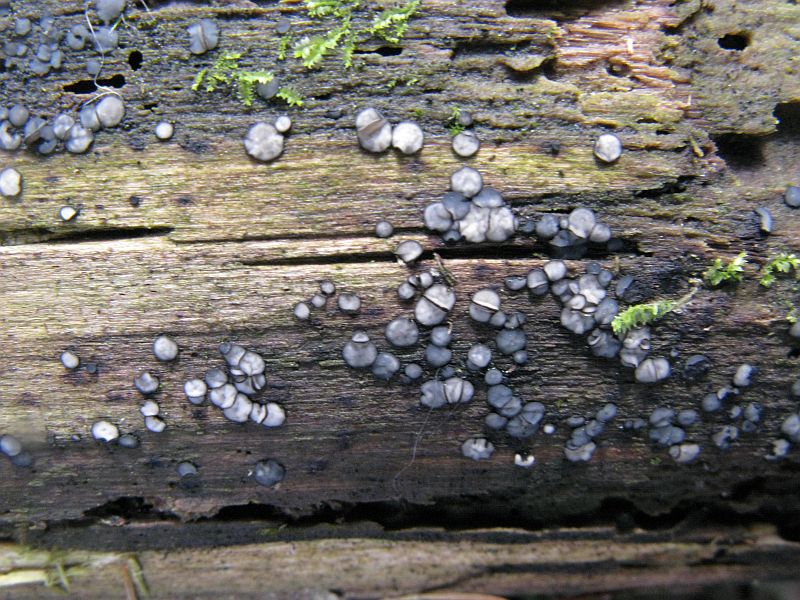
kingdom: Fungi
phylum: Ascomycota
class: Leotiomycetes
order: Helotiales
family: Mollisiaceae
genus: Mollisia
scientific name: Mollisia cinerea
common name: almindelig gråskive
